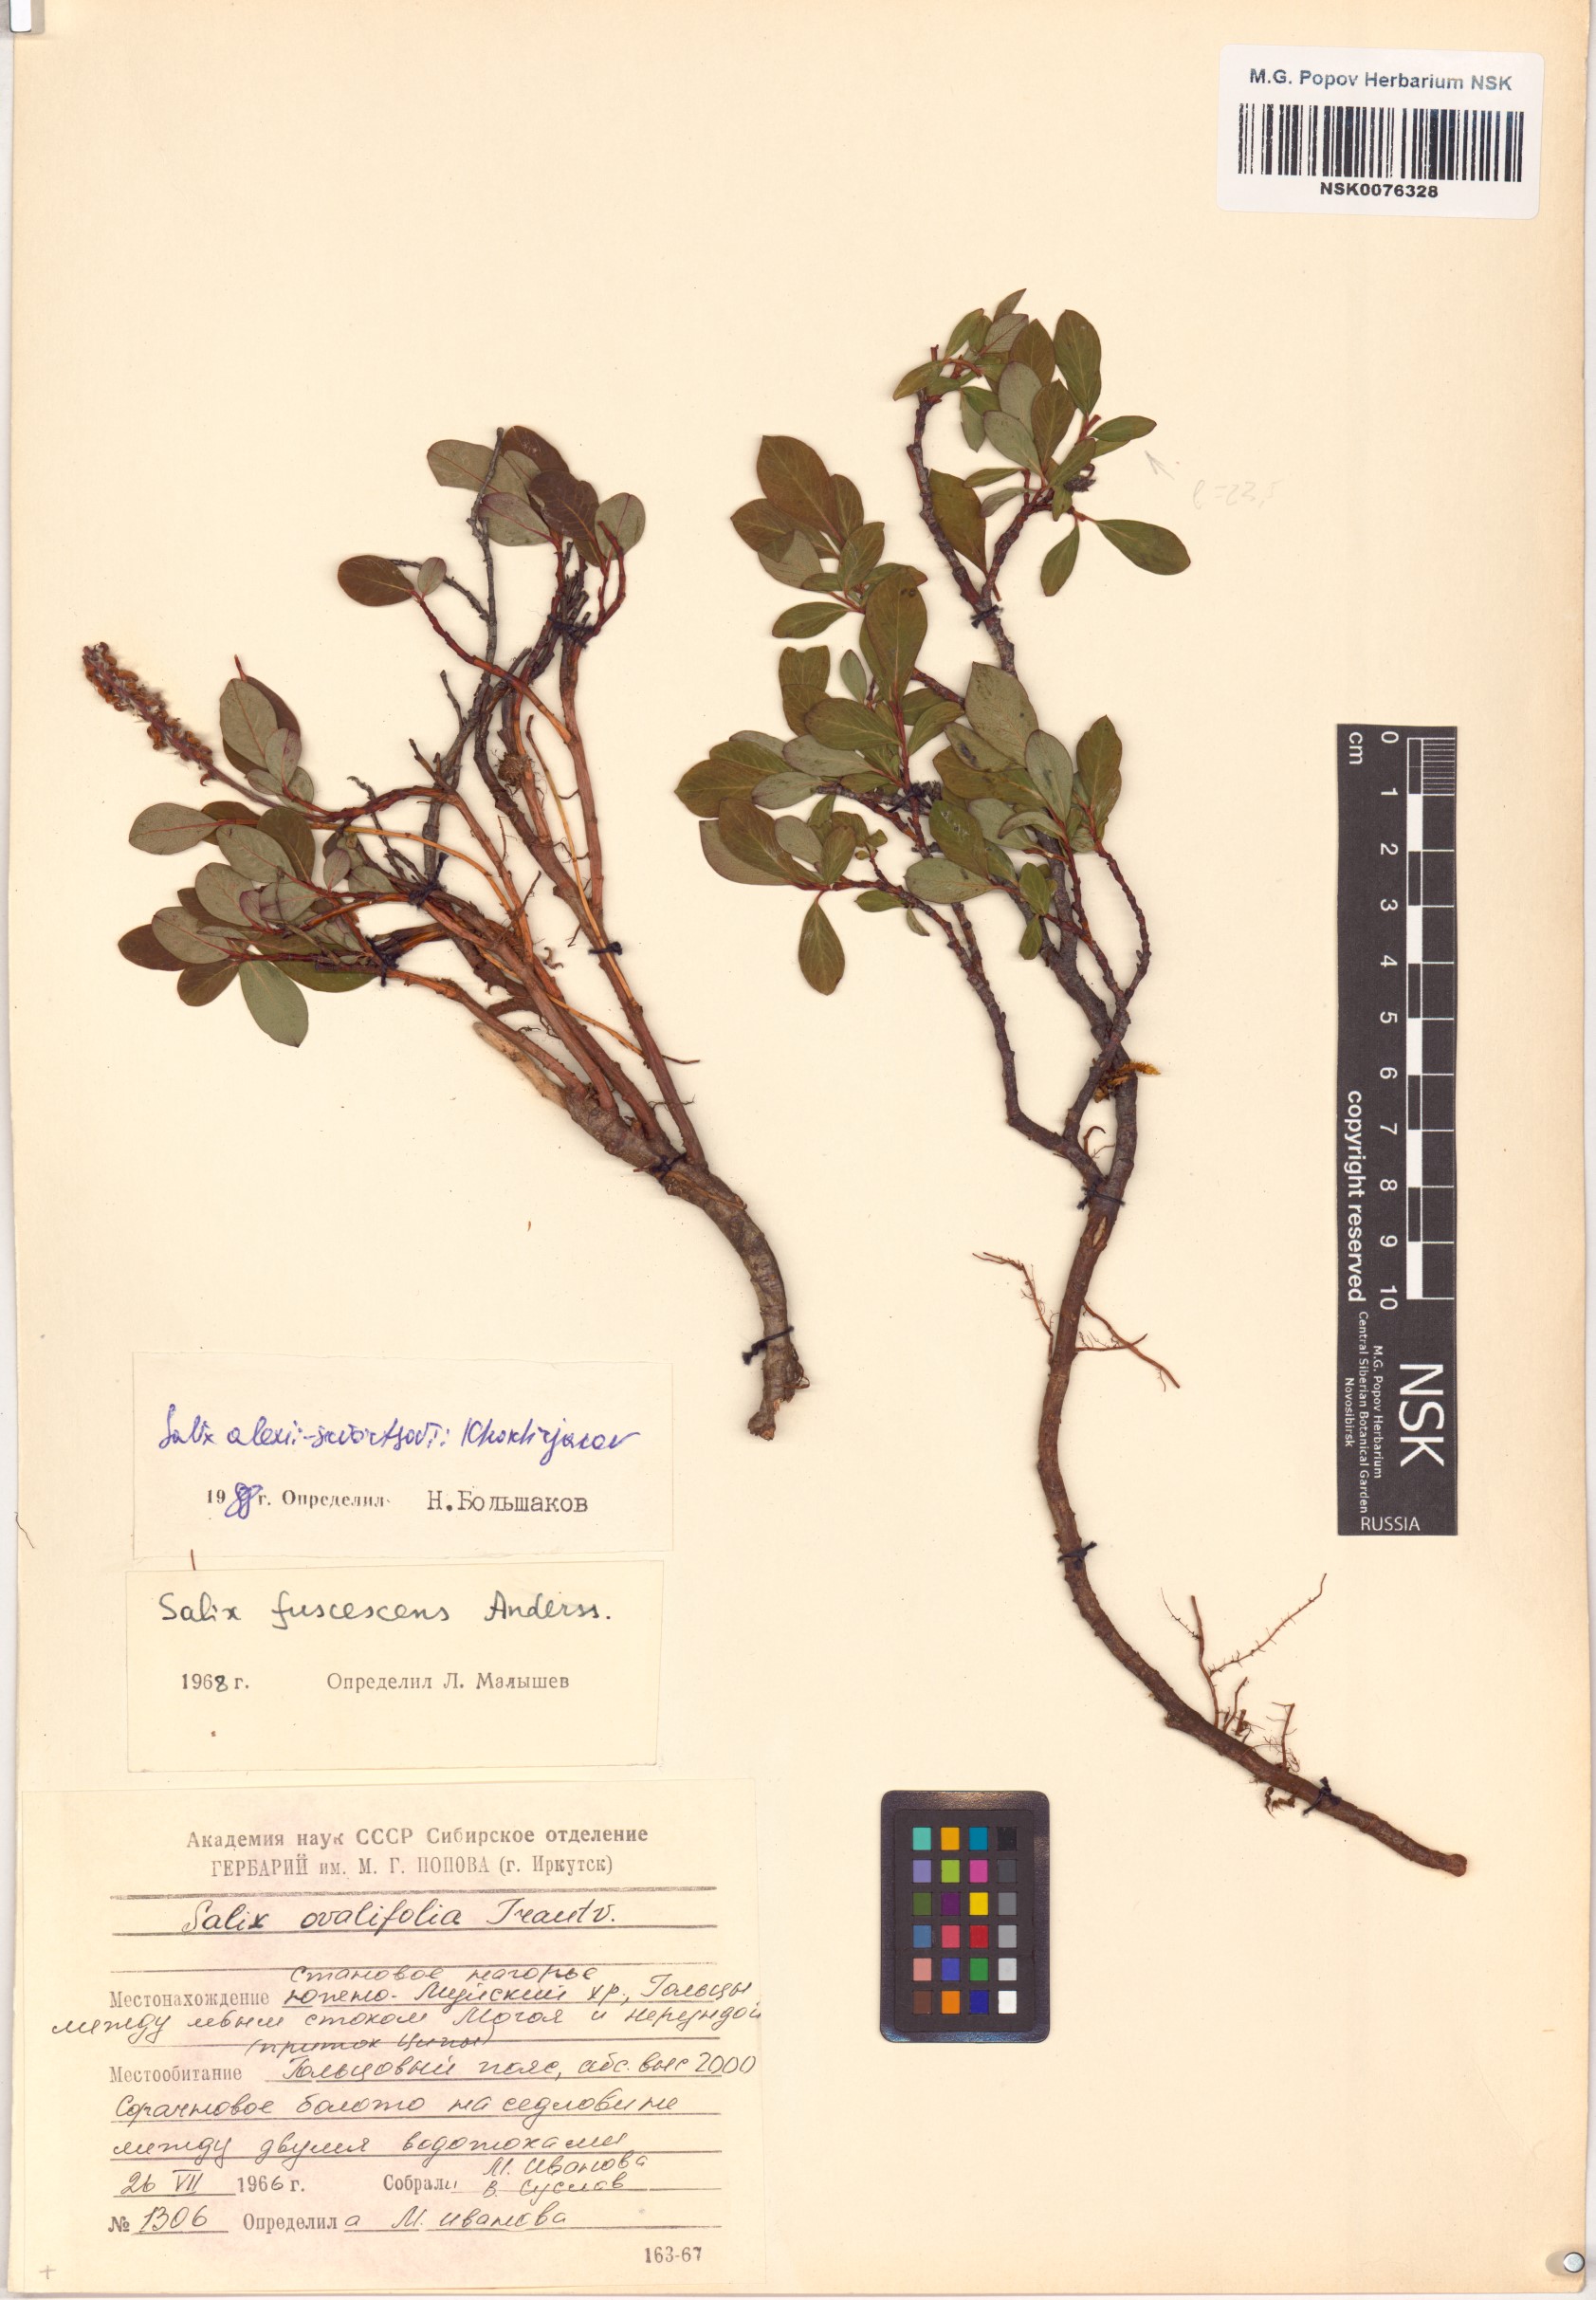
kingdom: Plantae
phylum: Tracheophyta
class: Magnoliopsida
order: Malpighiales
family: Salicaceae
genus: Salix
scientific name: Salix alexii-skvortzovii
